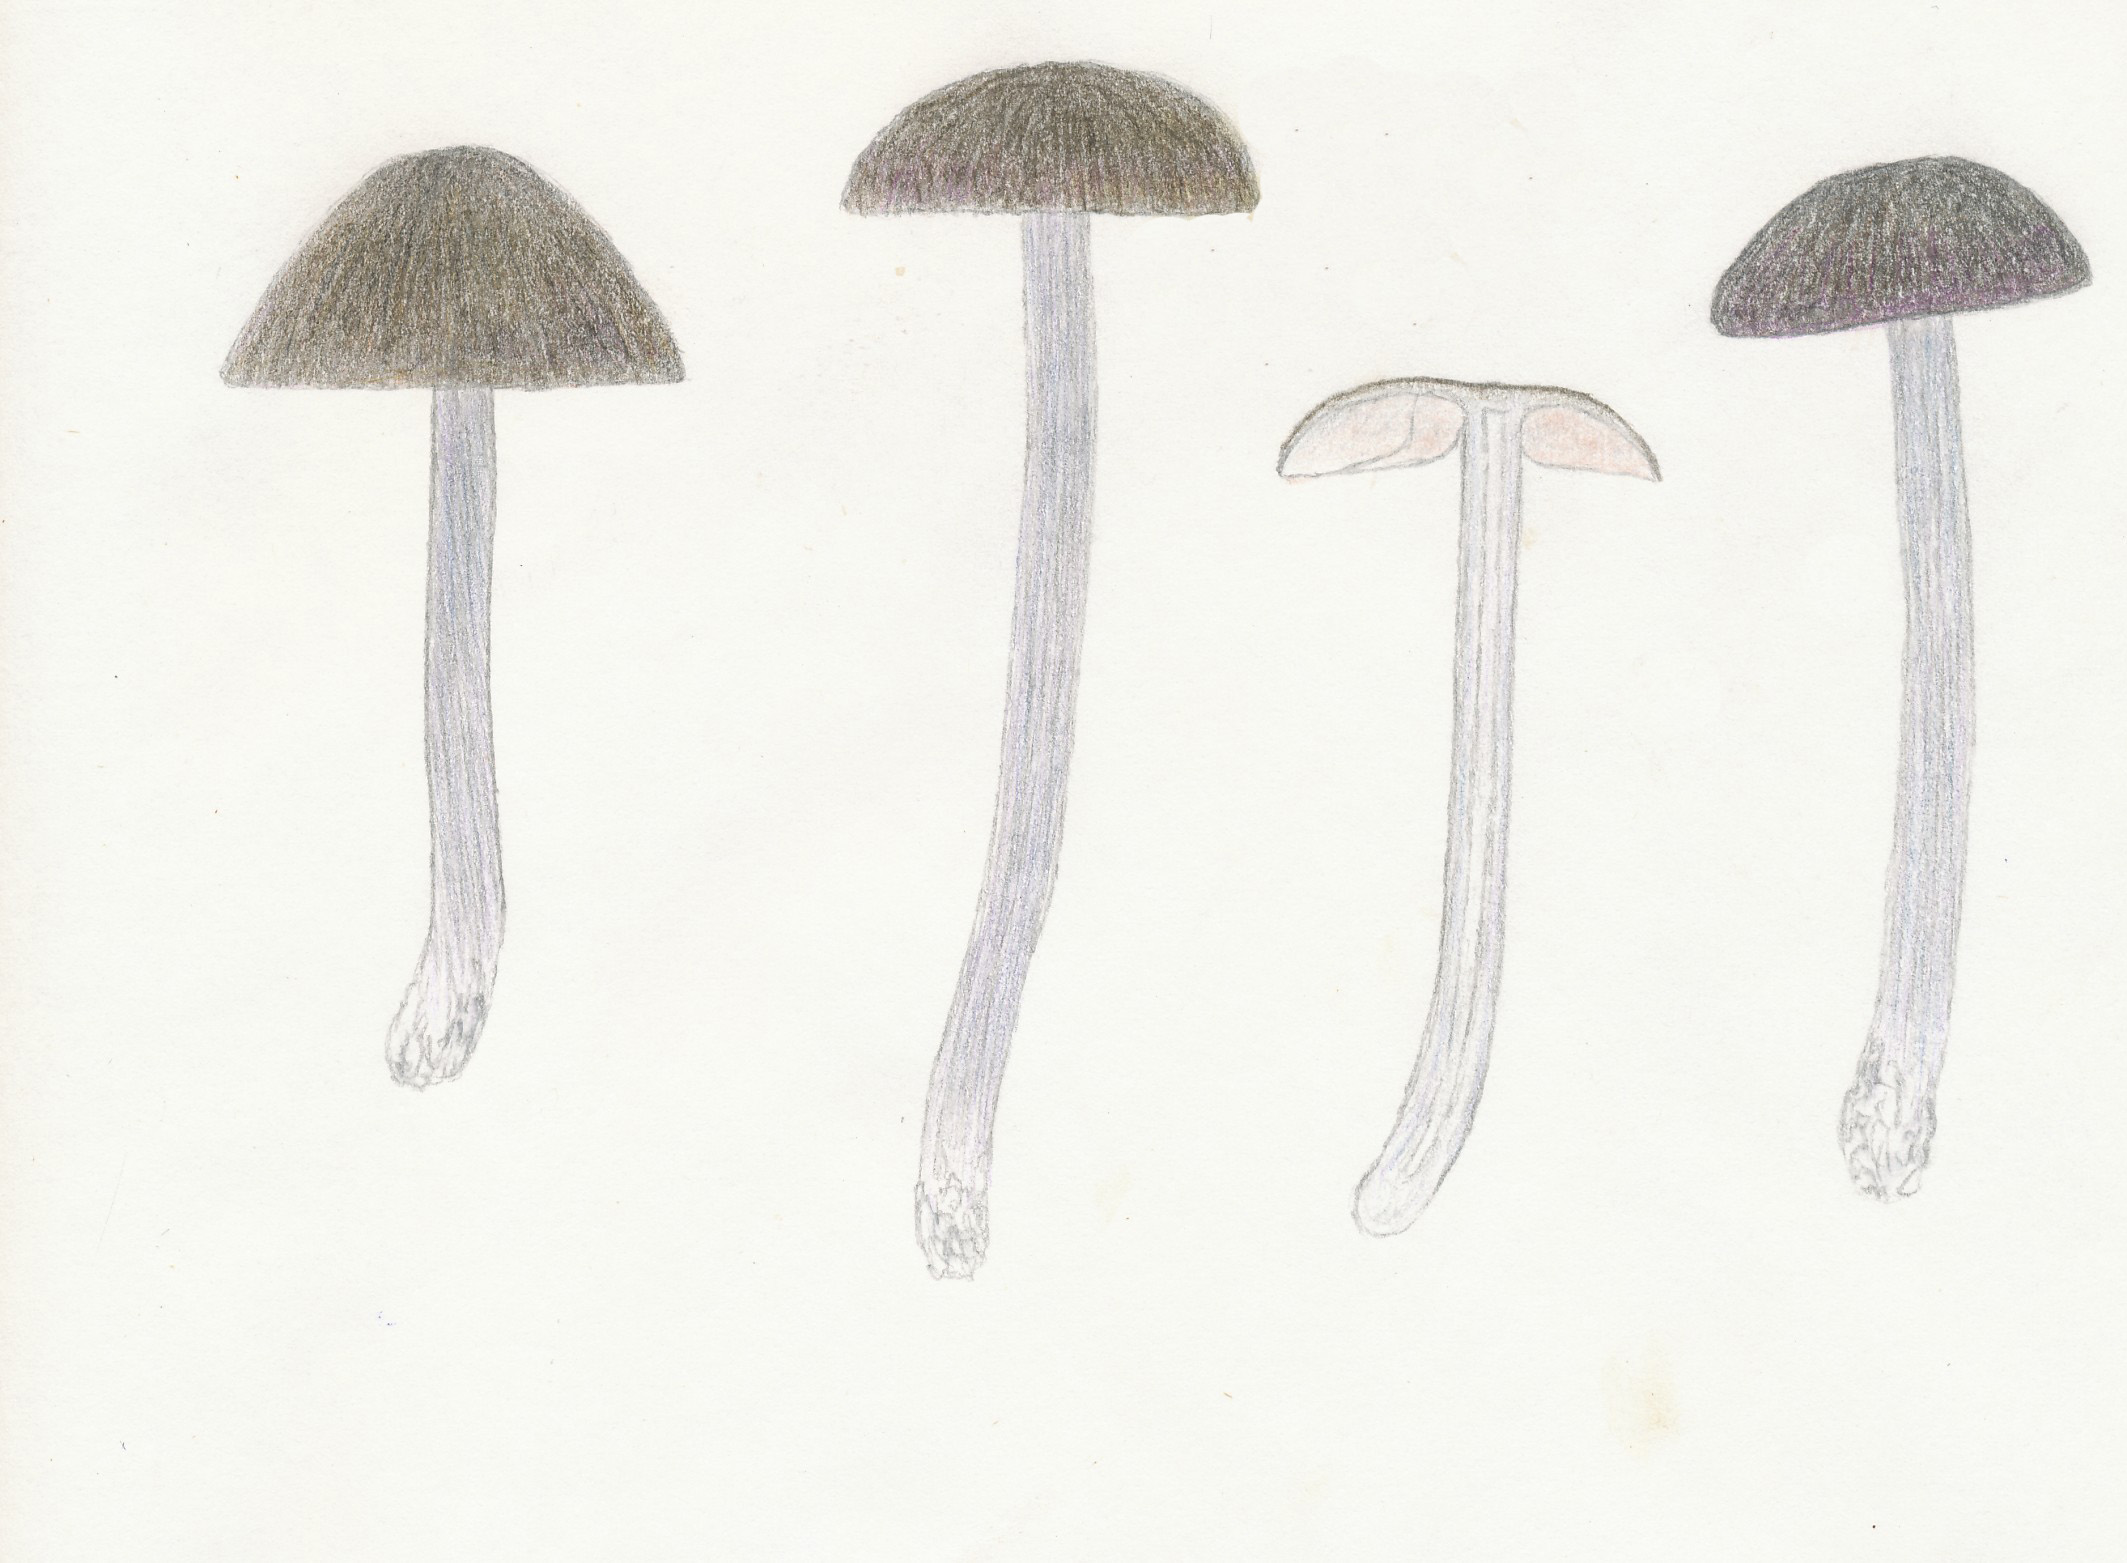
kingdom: Fungi
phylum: Basidiomycota
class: Agaricomycetes
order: Agaricales
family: Entolomataceae
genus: Entoloma
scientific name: Entoloma viiduense
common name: purpurbrun rødblad
